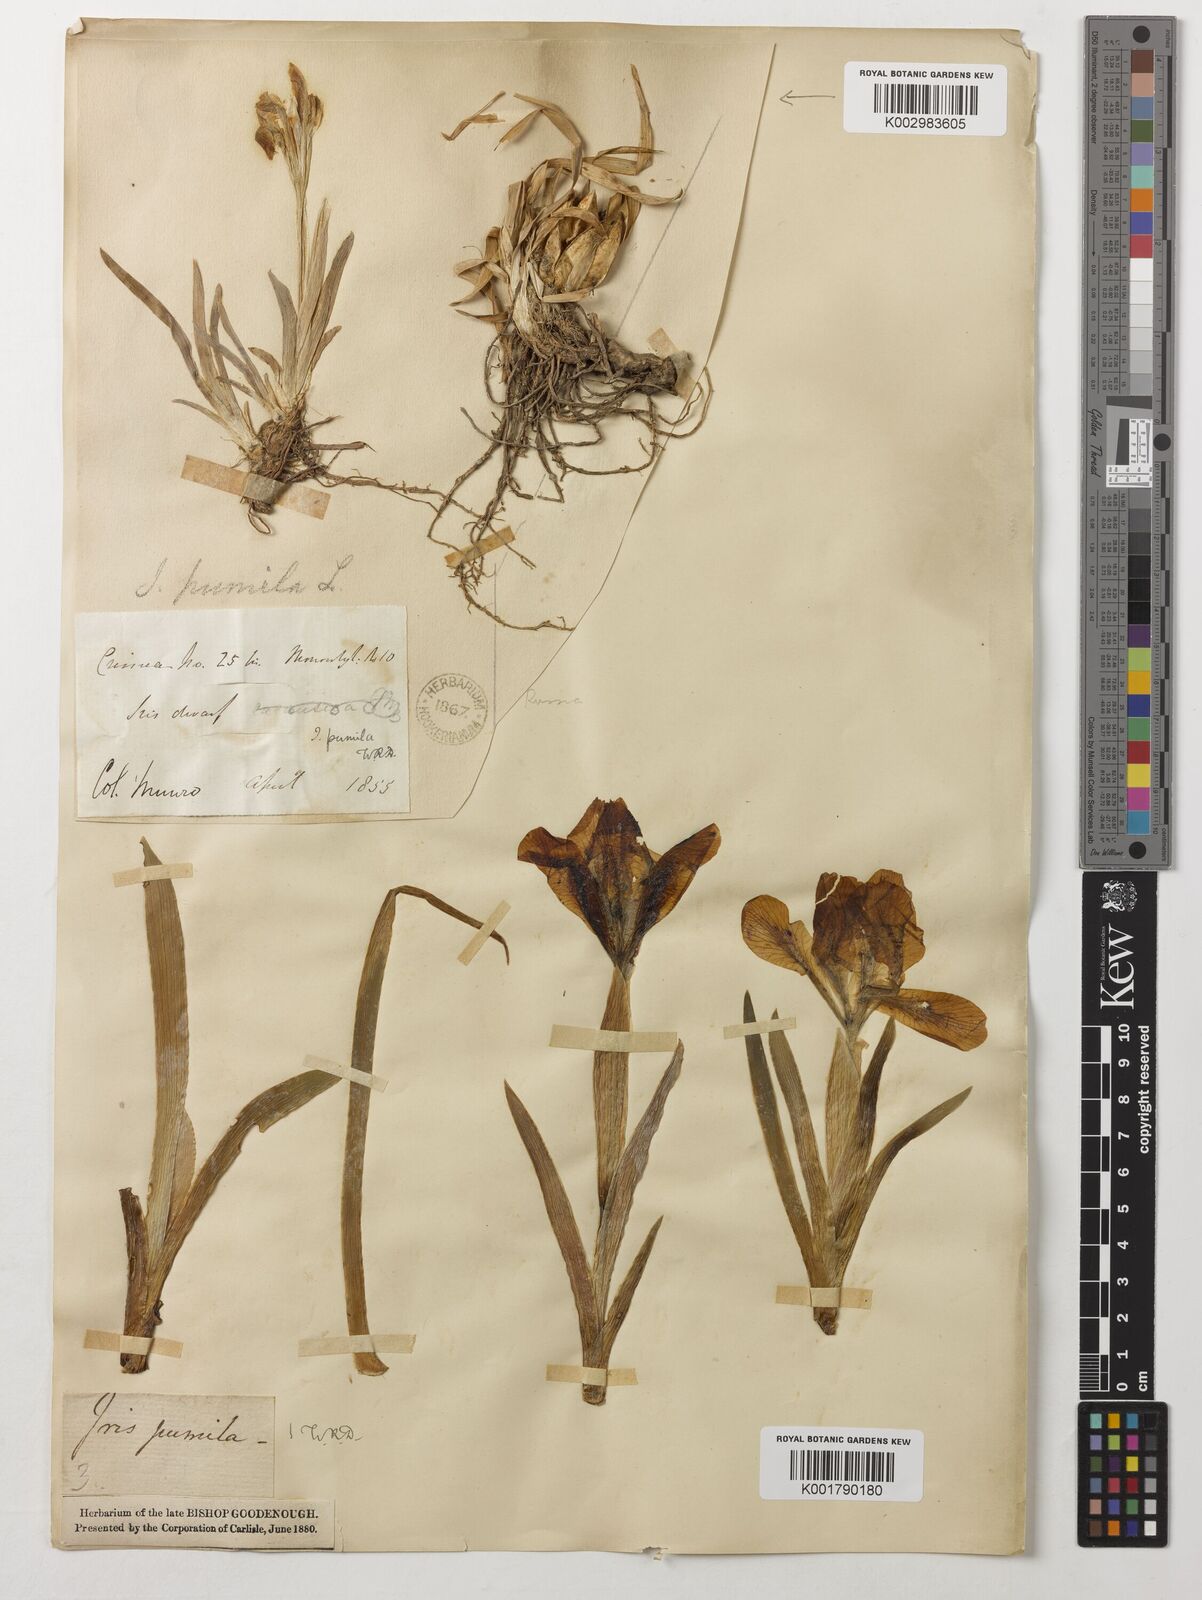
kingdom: Plantae
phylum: Tracheophyta
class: Liliopsida
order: Asparagales
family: Iridaceae
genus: Iris
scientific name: Iris pumila
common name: Dwarf iris
